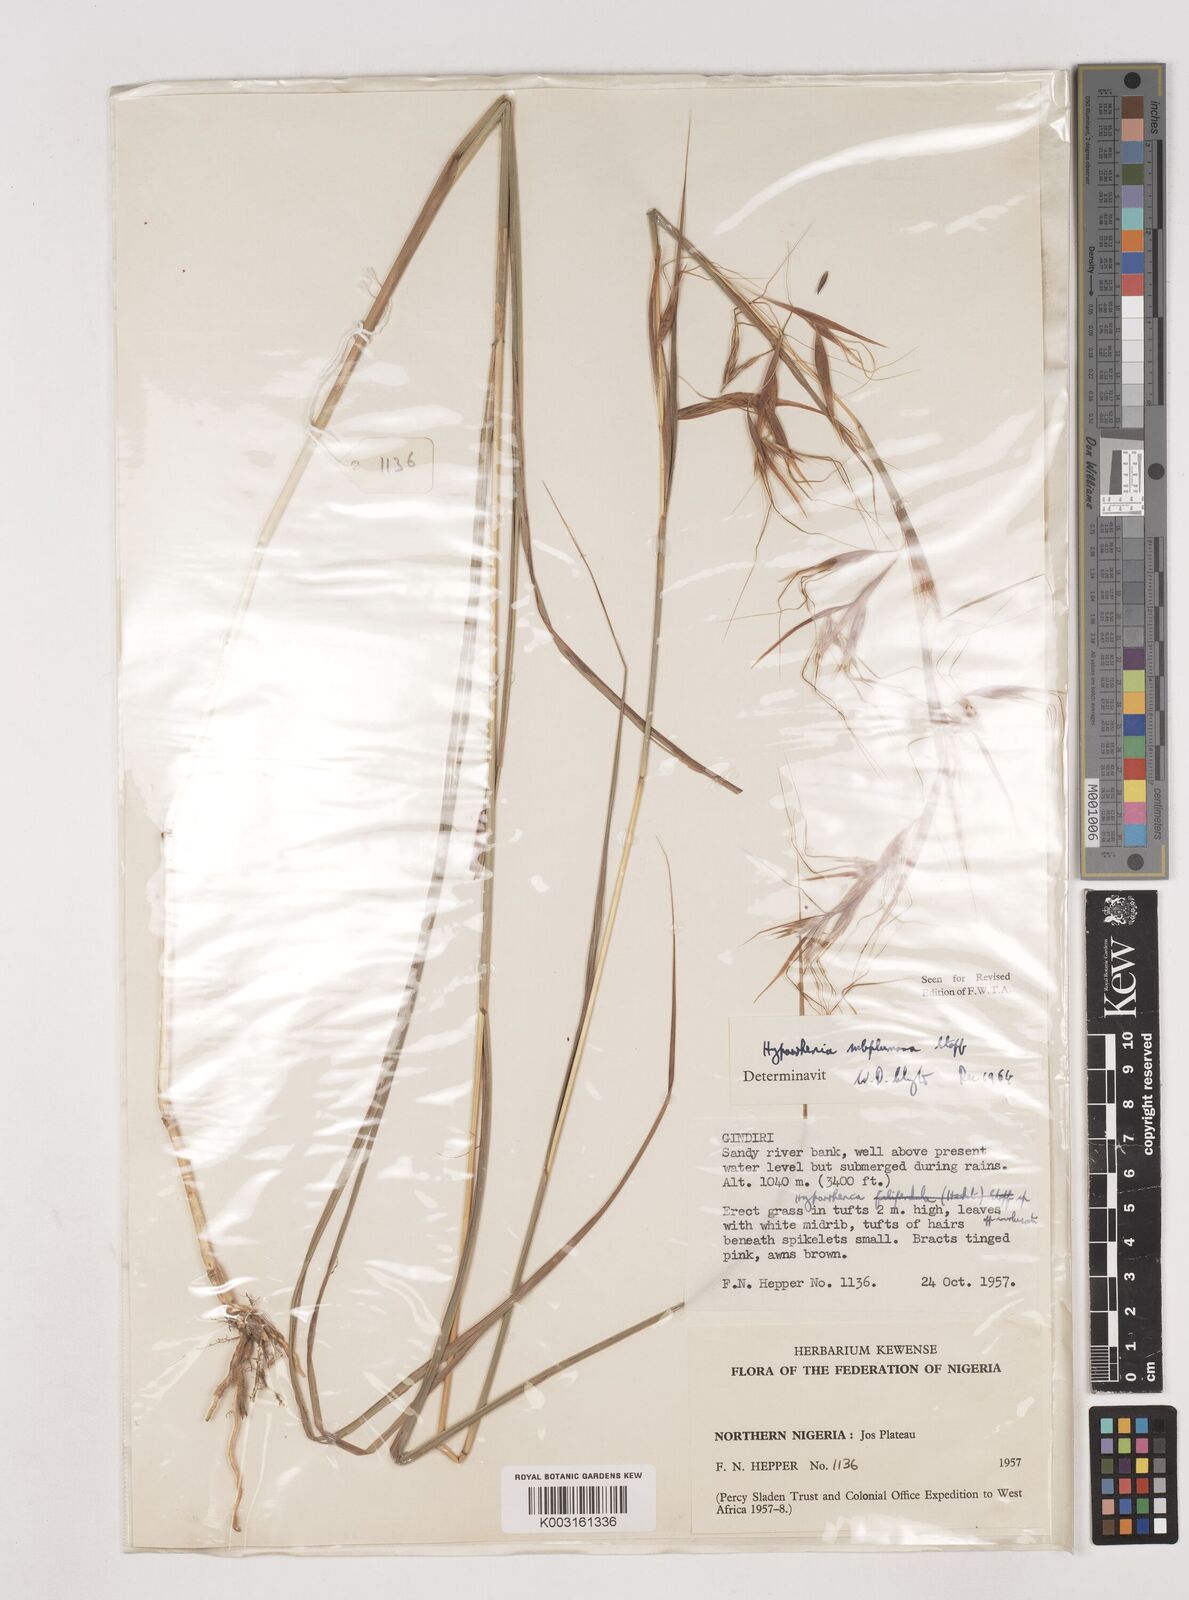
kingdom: Plantae
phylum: Tracheophyta
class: Liliopsida
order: Poales
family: Poaceae
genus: Hyparrhenia
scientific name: Hyparrhenia subplumosa
